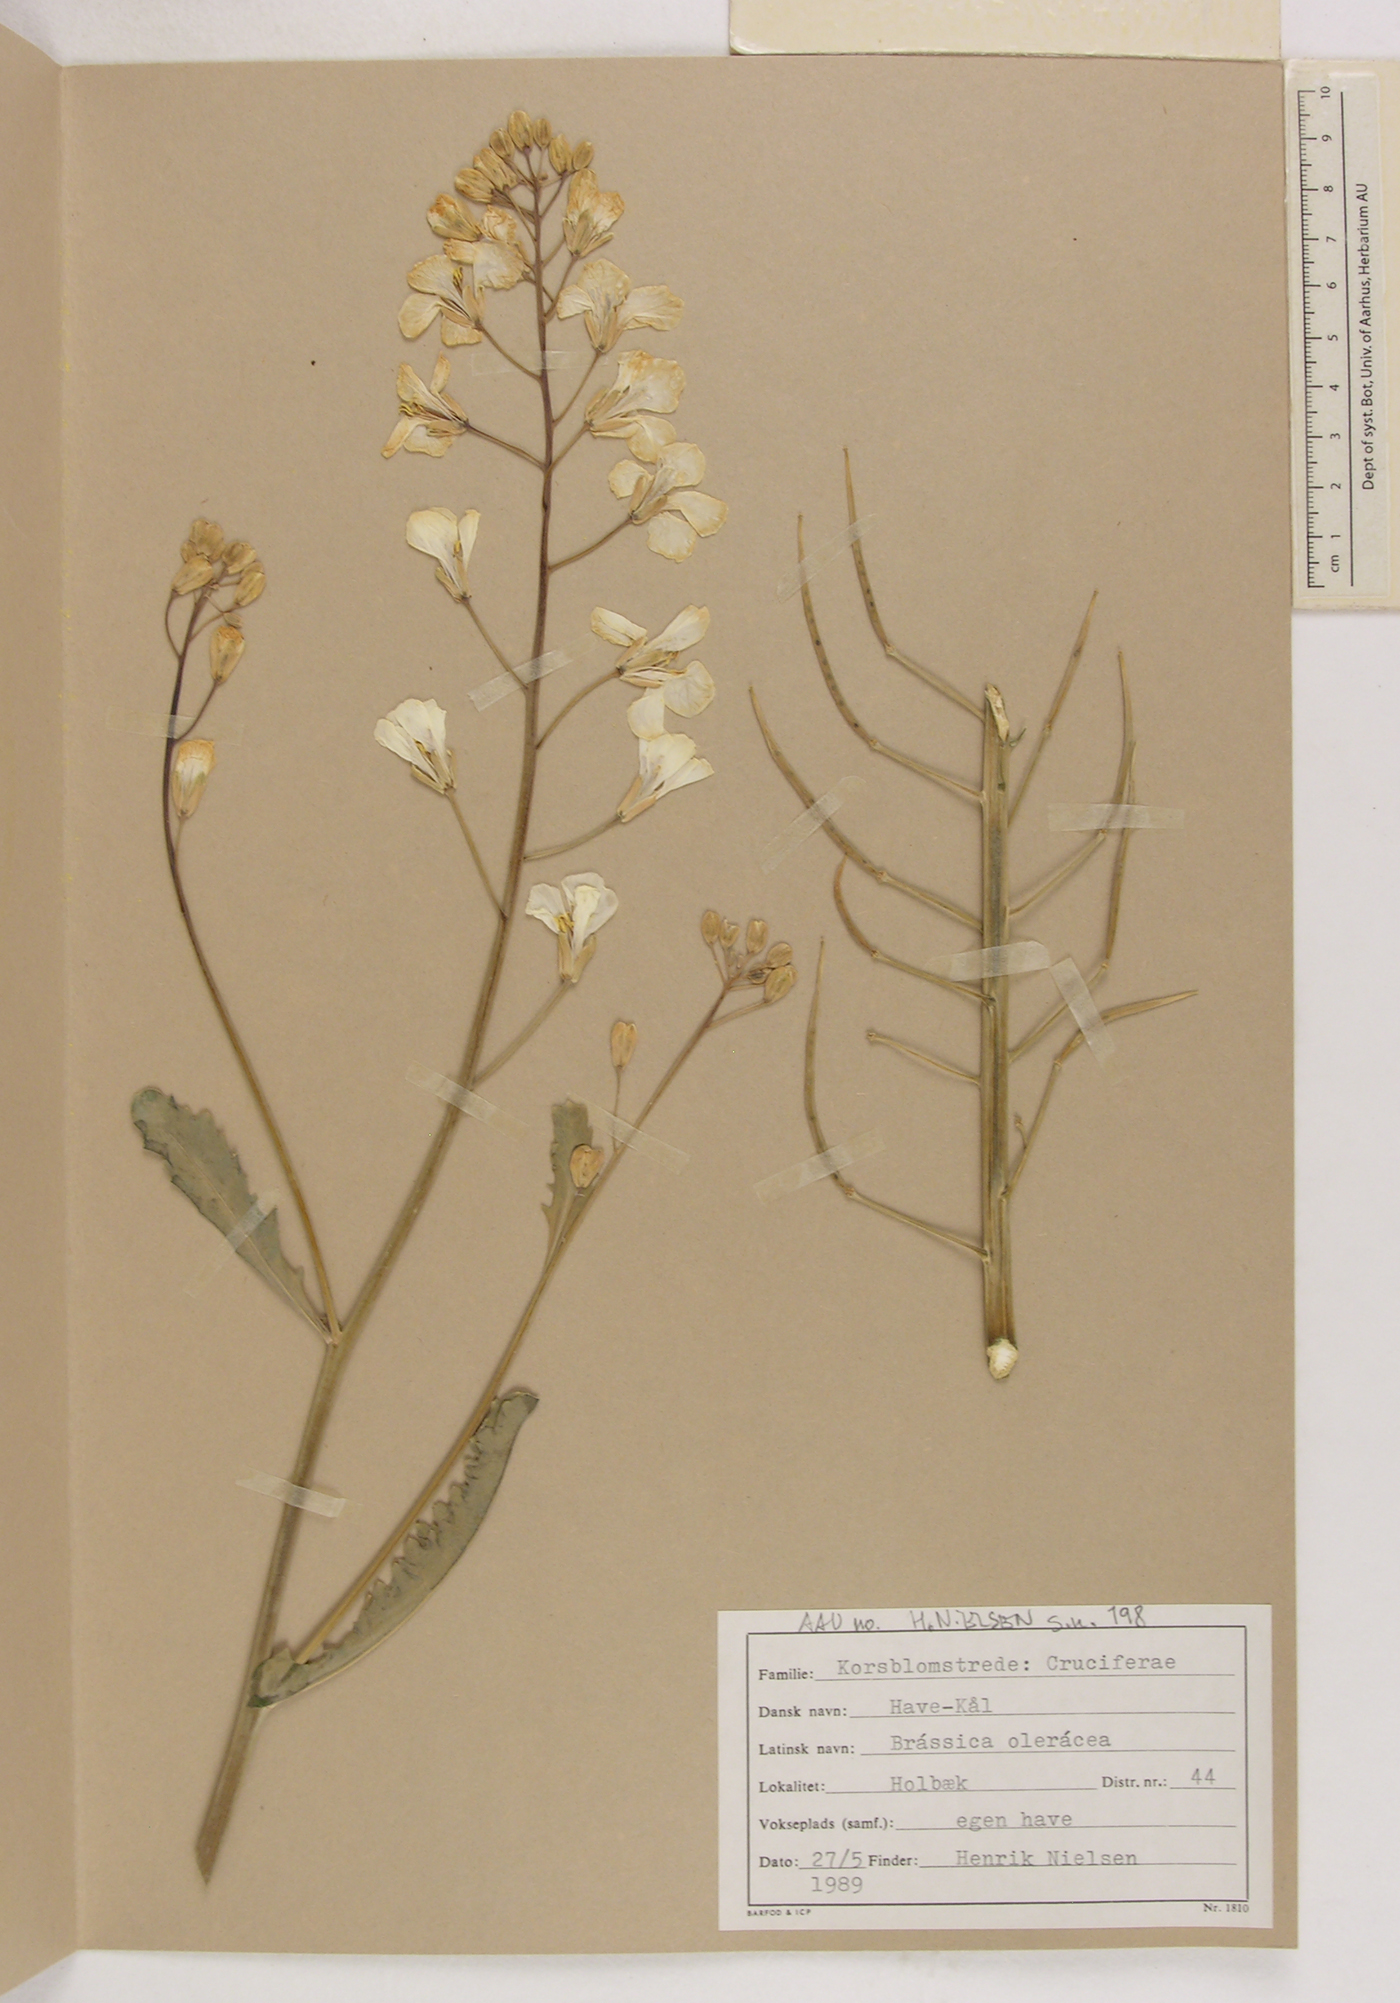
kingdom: Plantae
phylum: Tracheophyta
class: Magnoliopsida
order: Brassicales
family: Brassicaceae
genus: Brassica
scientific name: Brassica oleracea
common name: Cabbage
